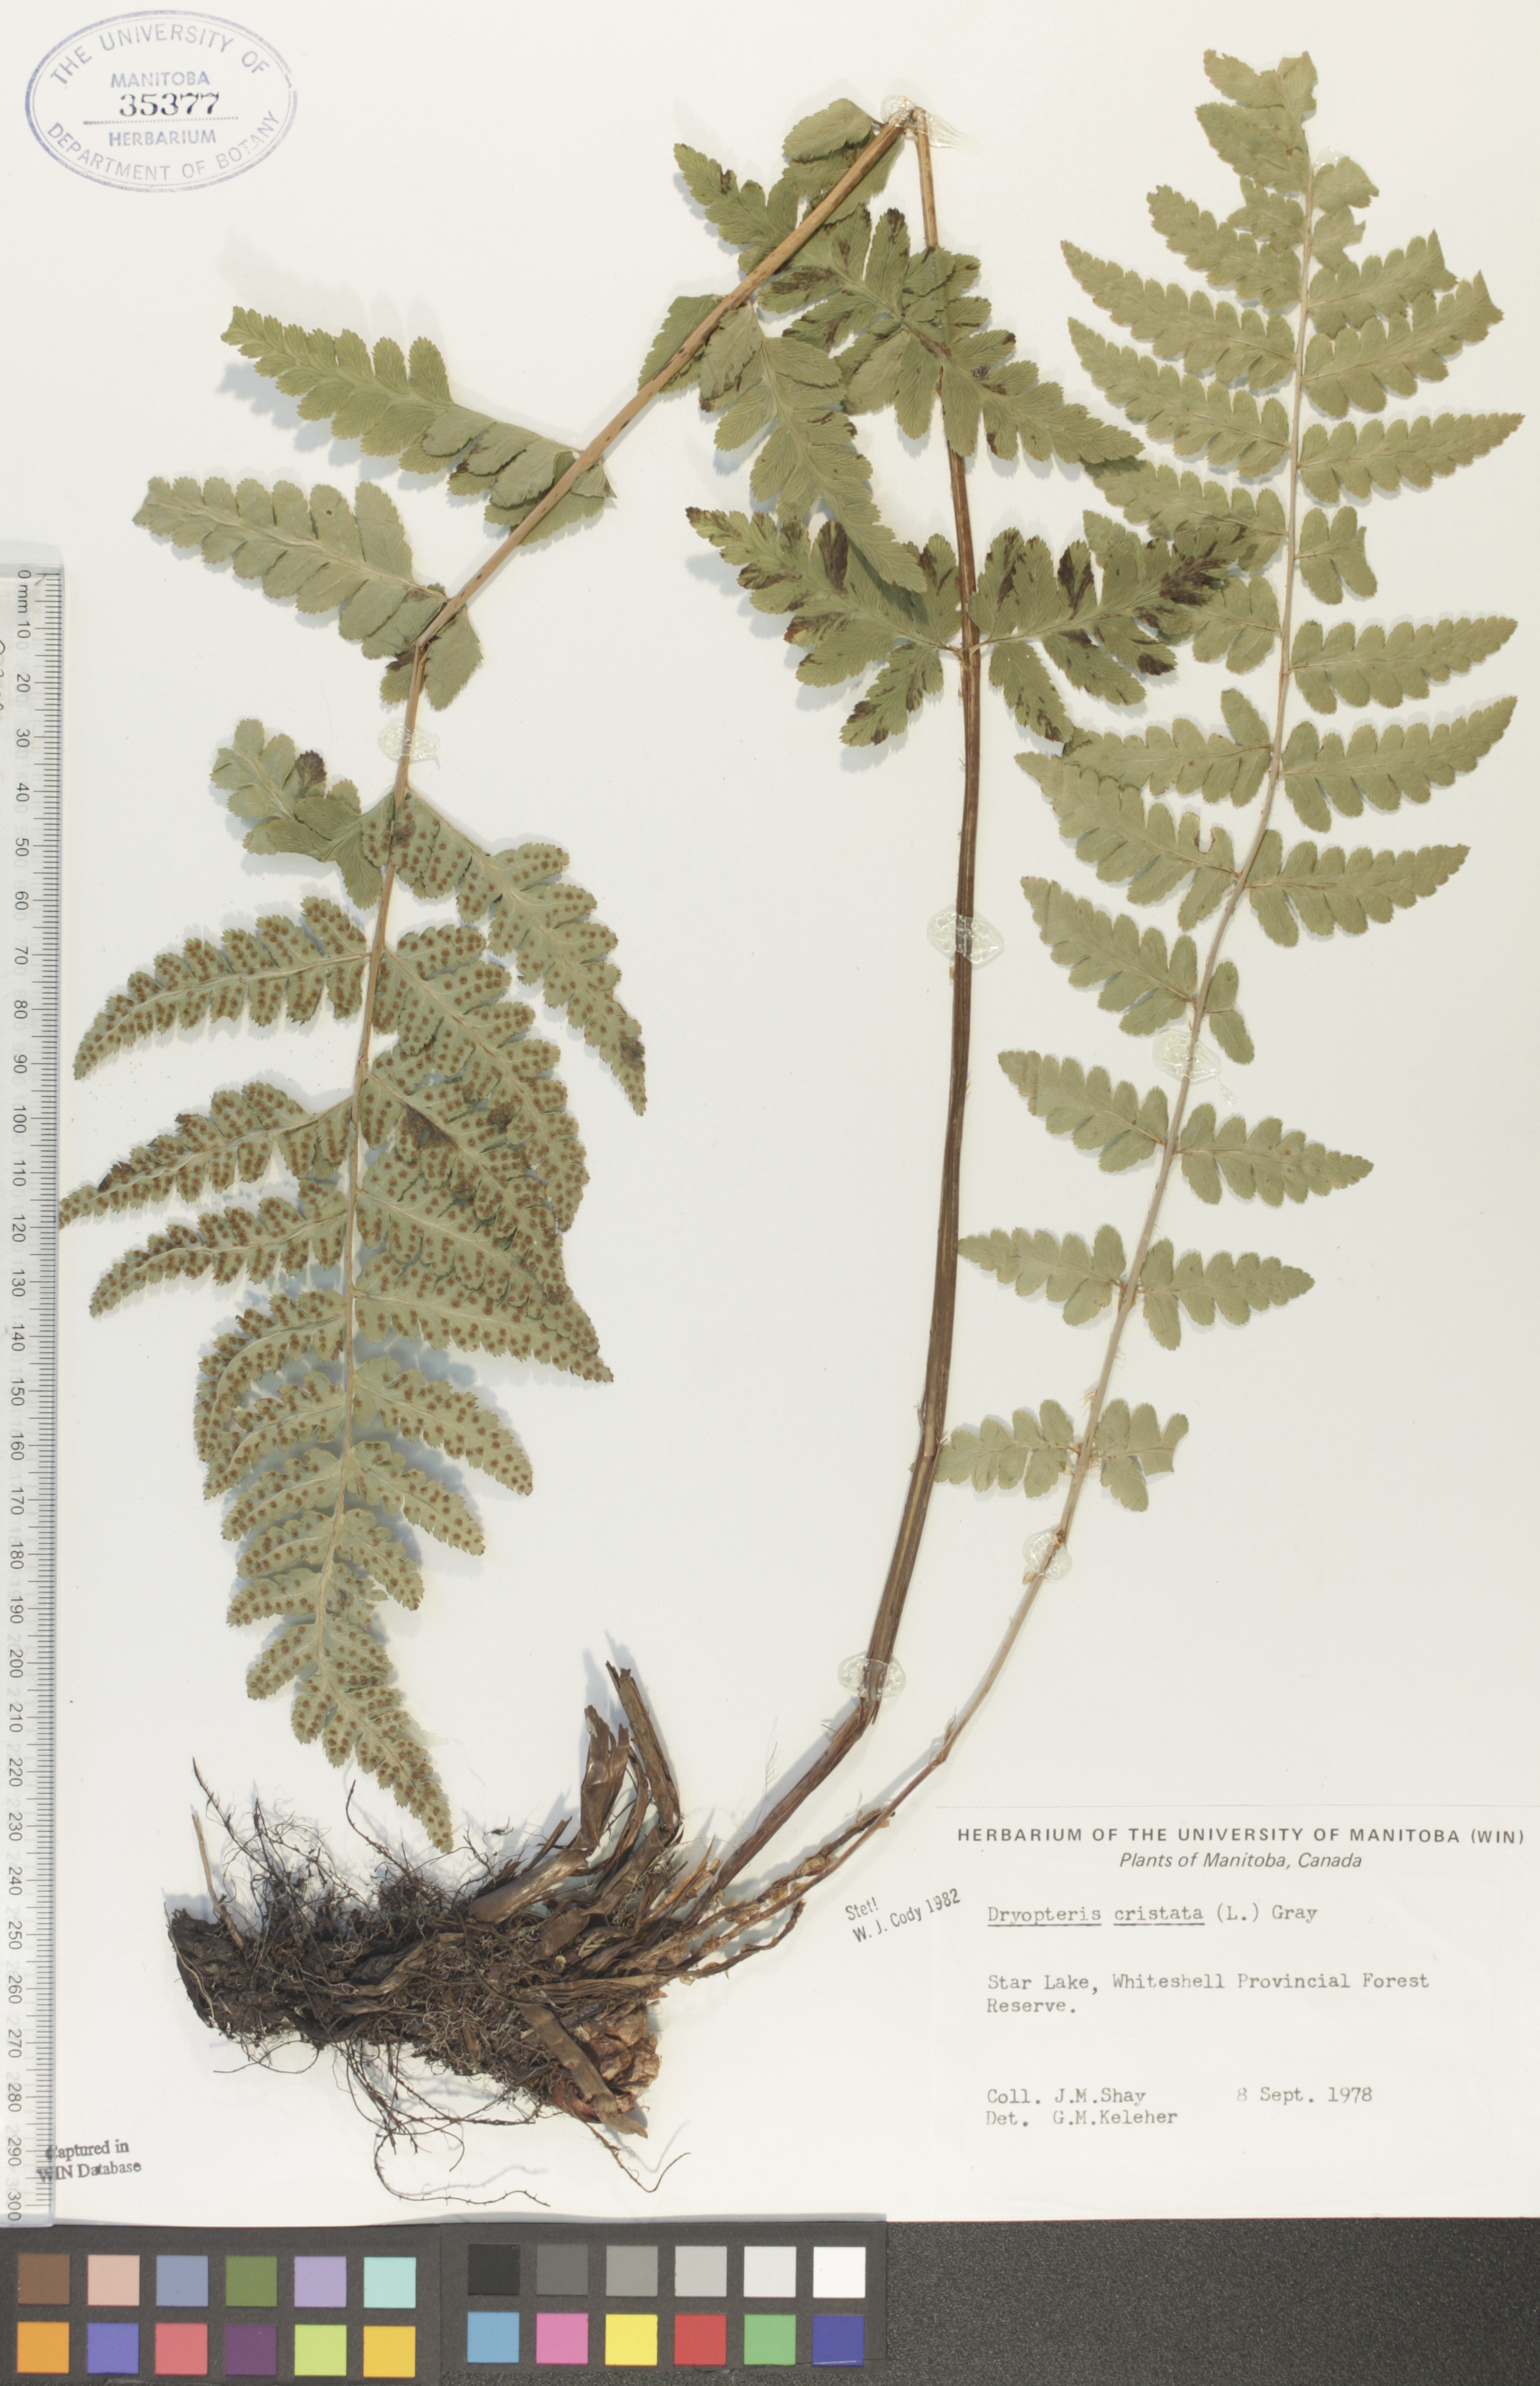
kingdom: Plantae
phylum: Tracheophyta
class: Polypodiopsida
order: Polypodiales
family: Dryopteridaceae
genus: Dryopteris
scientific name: Dryopteris cristata
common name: Crested wood fern
